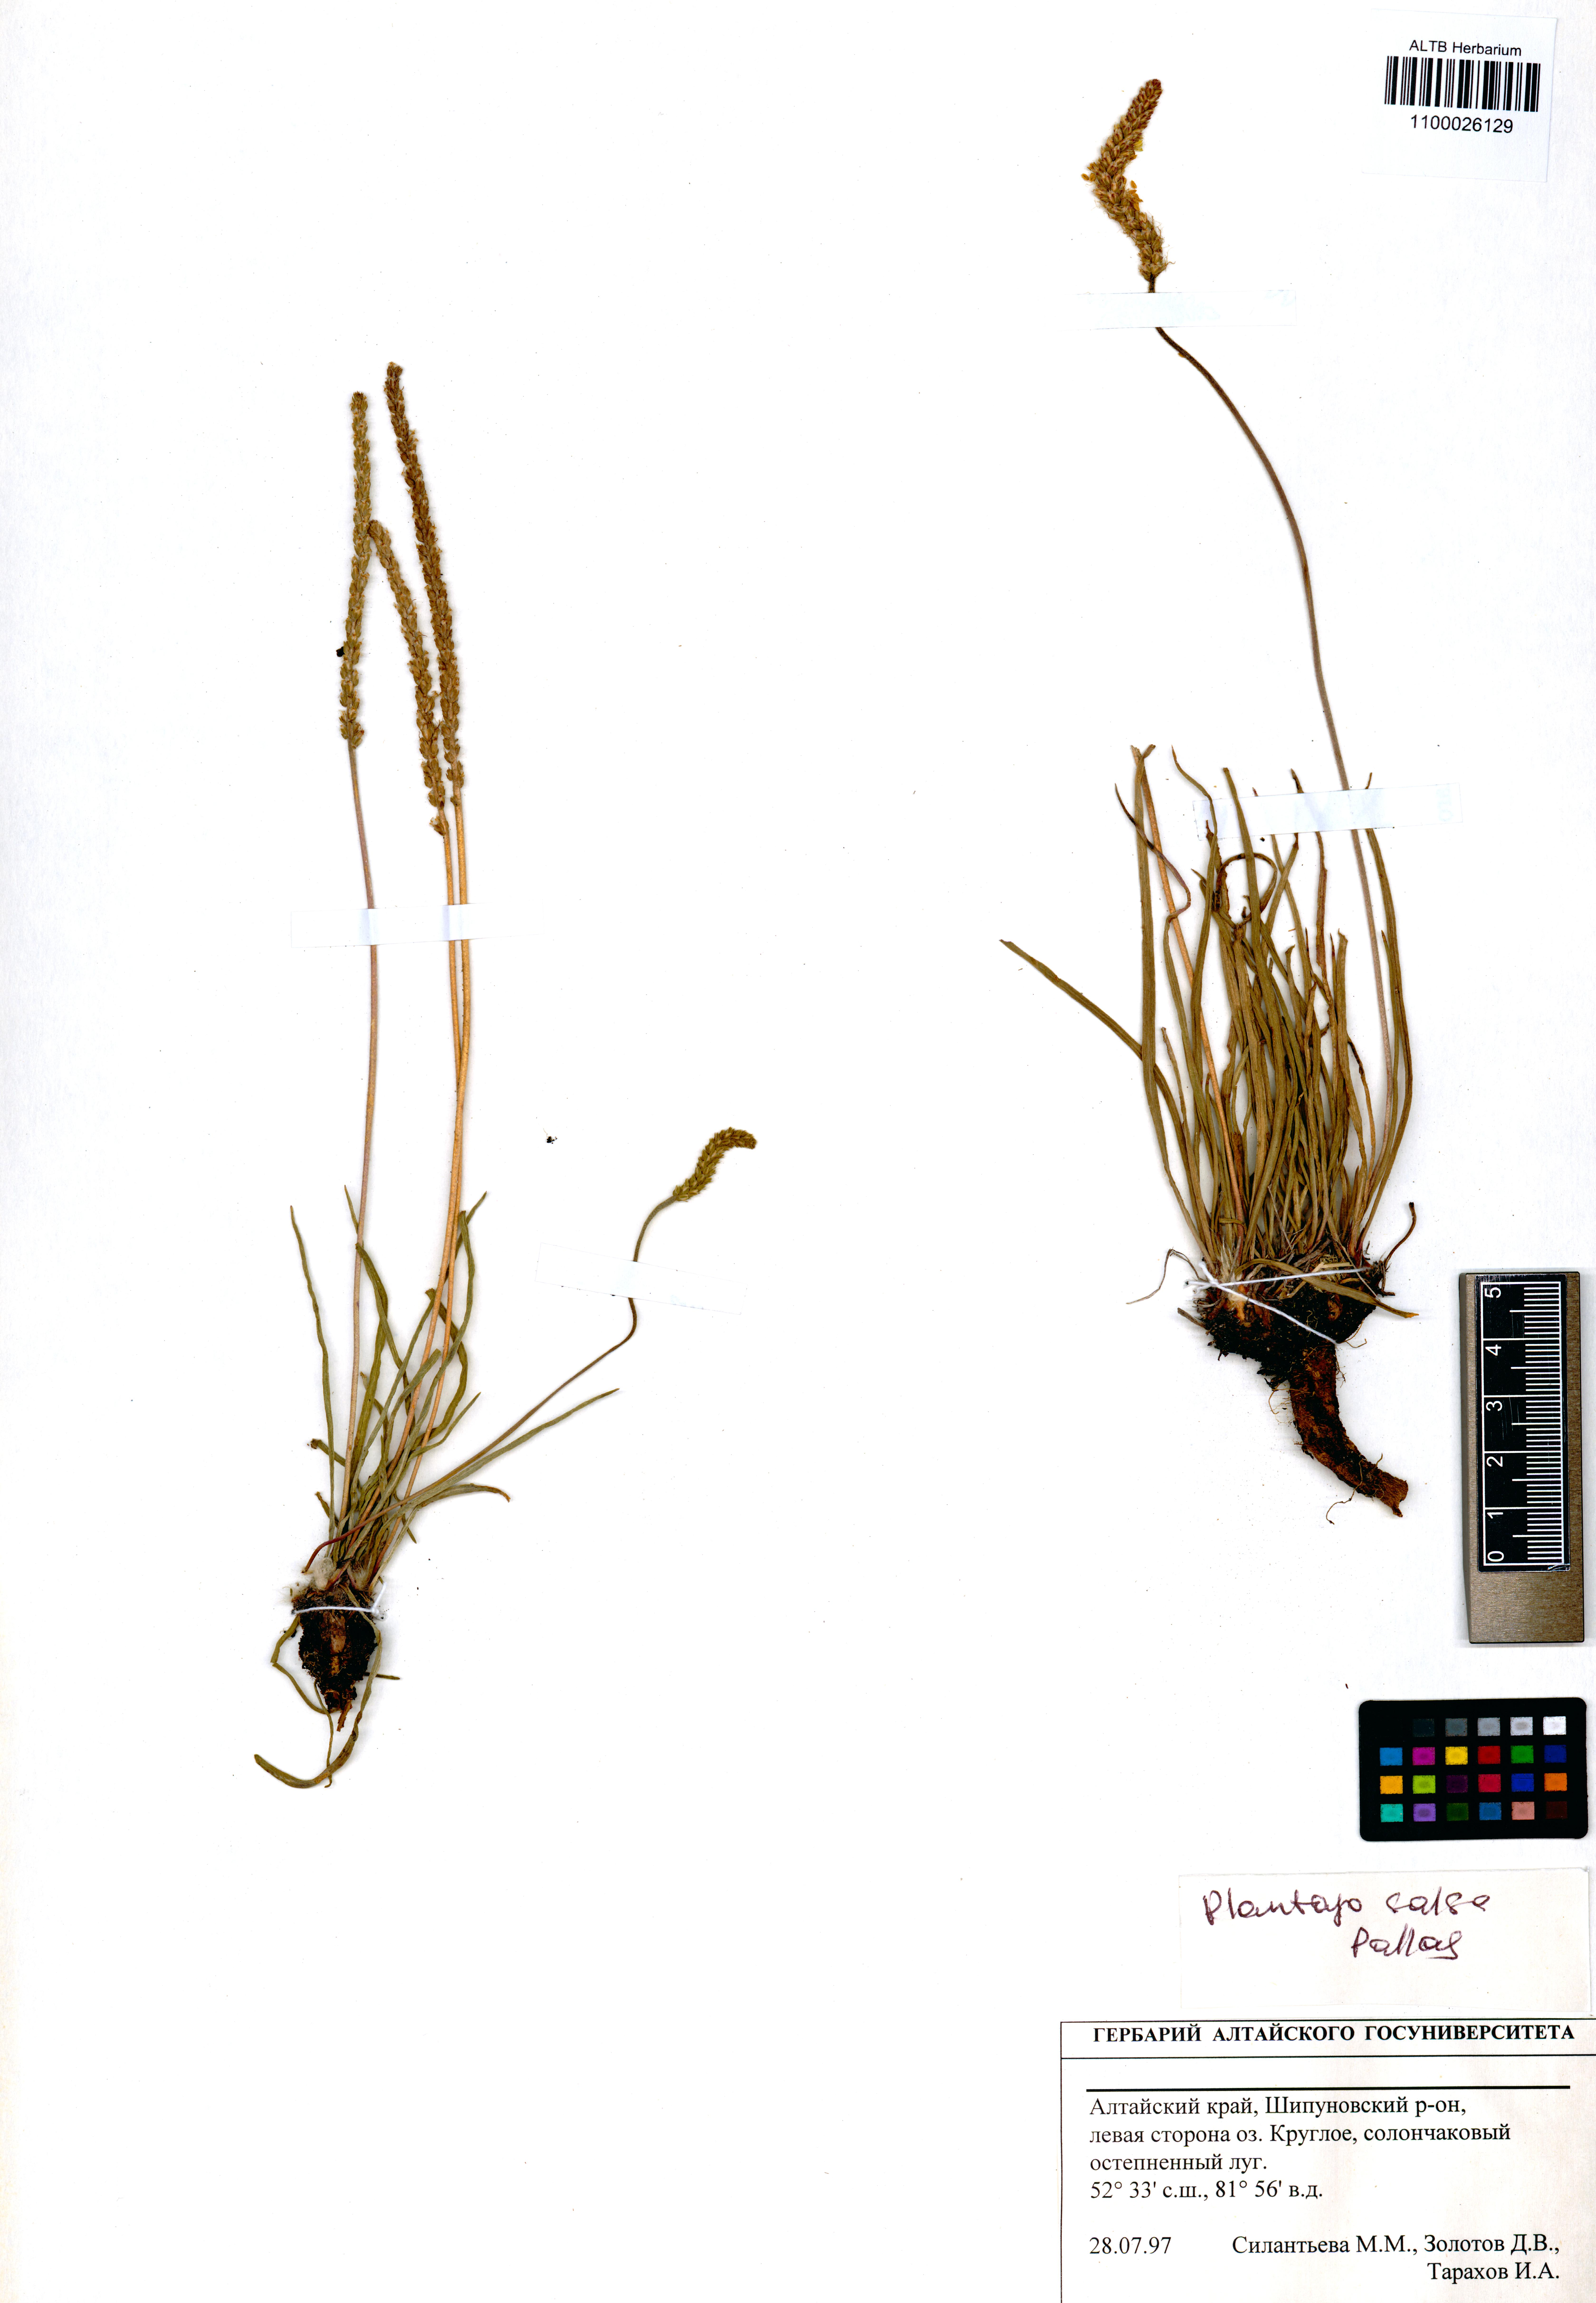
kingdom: Plantae
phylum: Tracheophyta
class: Magnoliopsida
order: Lamiales
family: Plantaginaceae
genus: Plantago
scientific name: Plantago salsa
